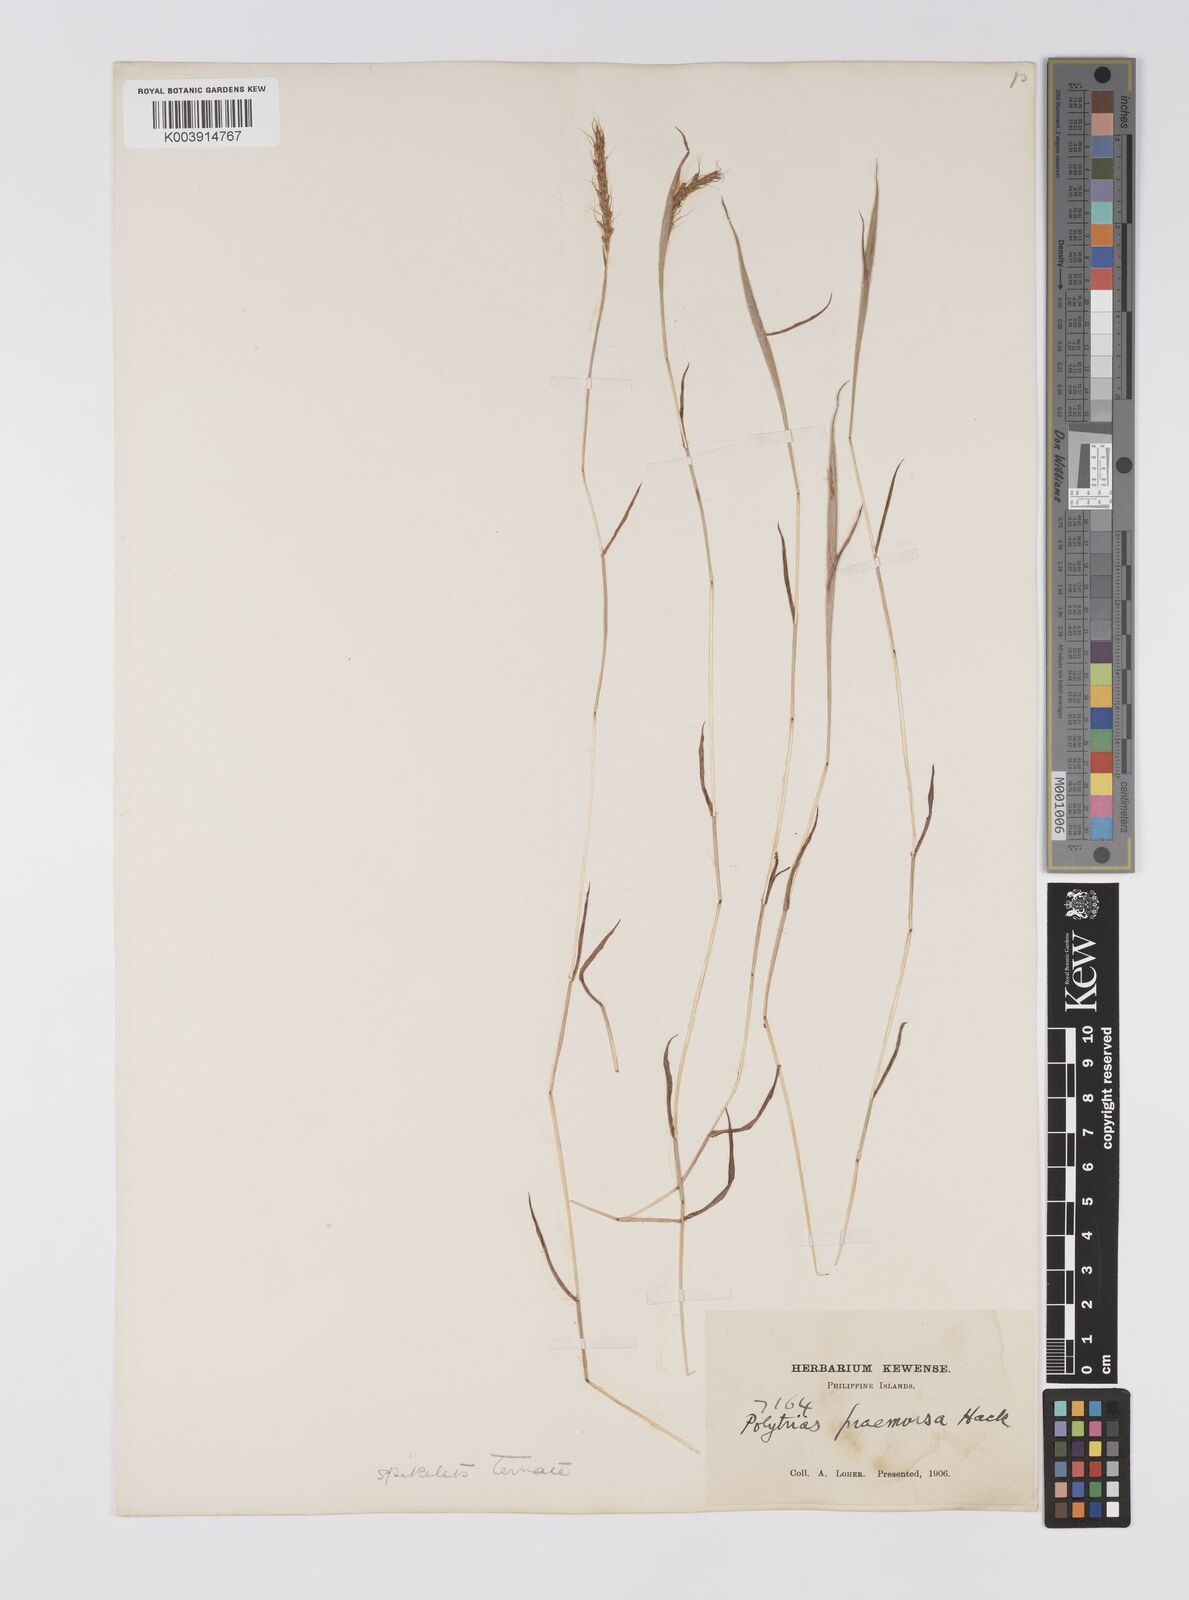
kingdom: Plantae
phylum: Tracheophyta
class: Liliopsida
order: Poales
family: Poaceae
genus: Polytrias
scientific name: Polytrias indica
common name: Indian murainagrass
